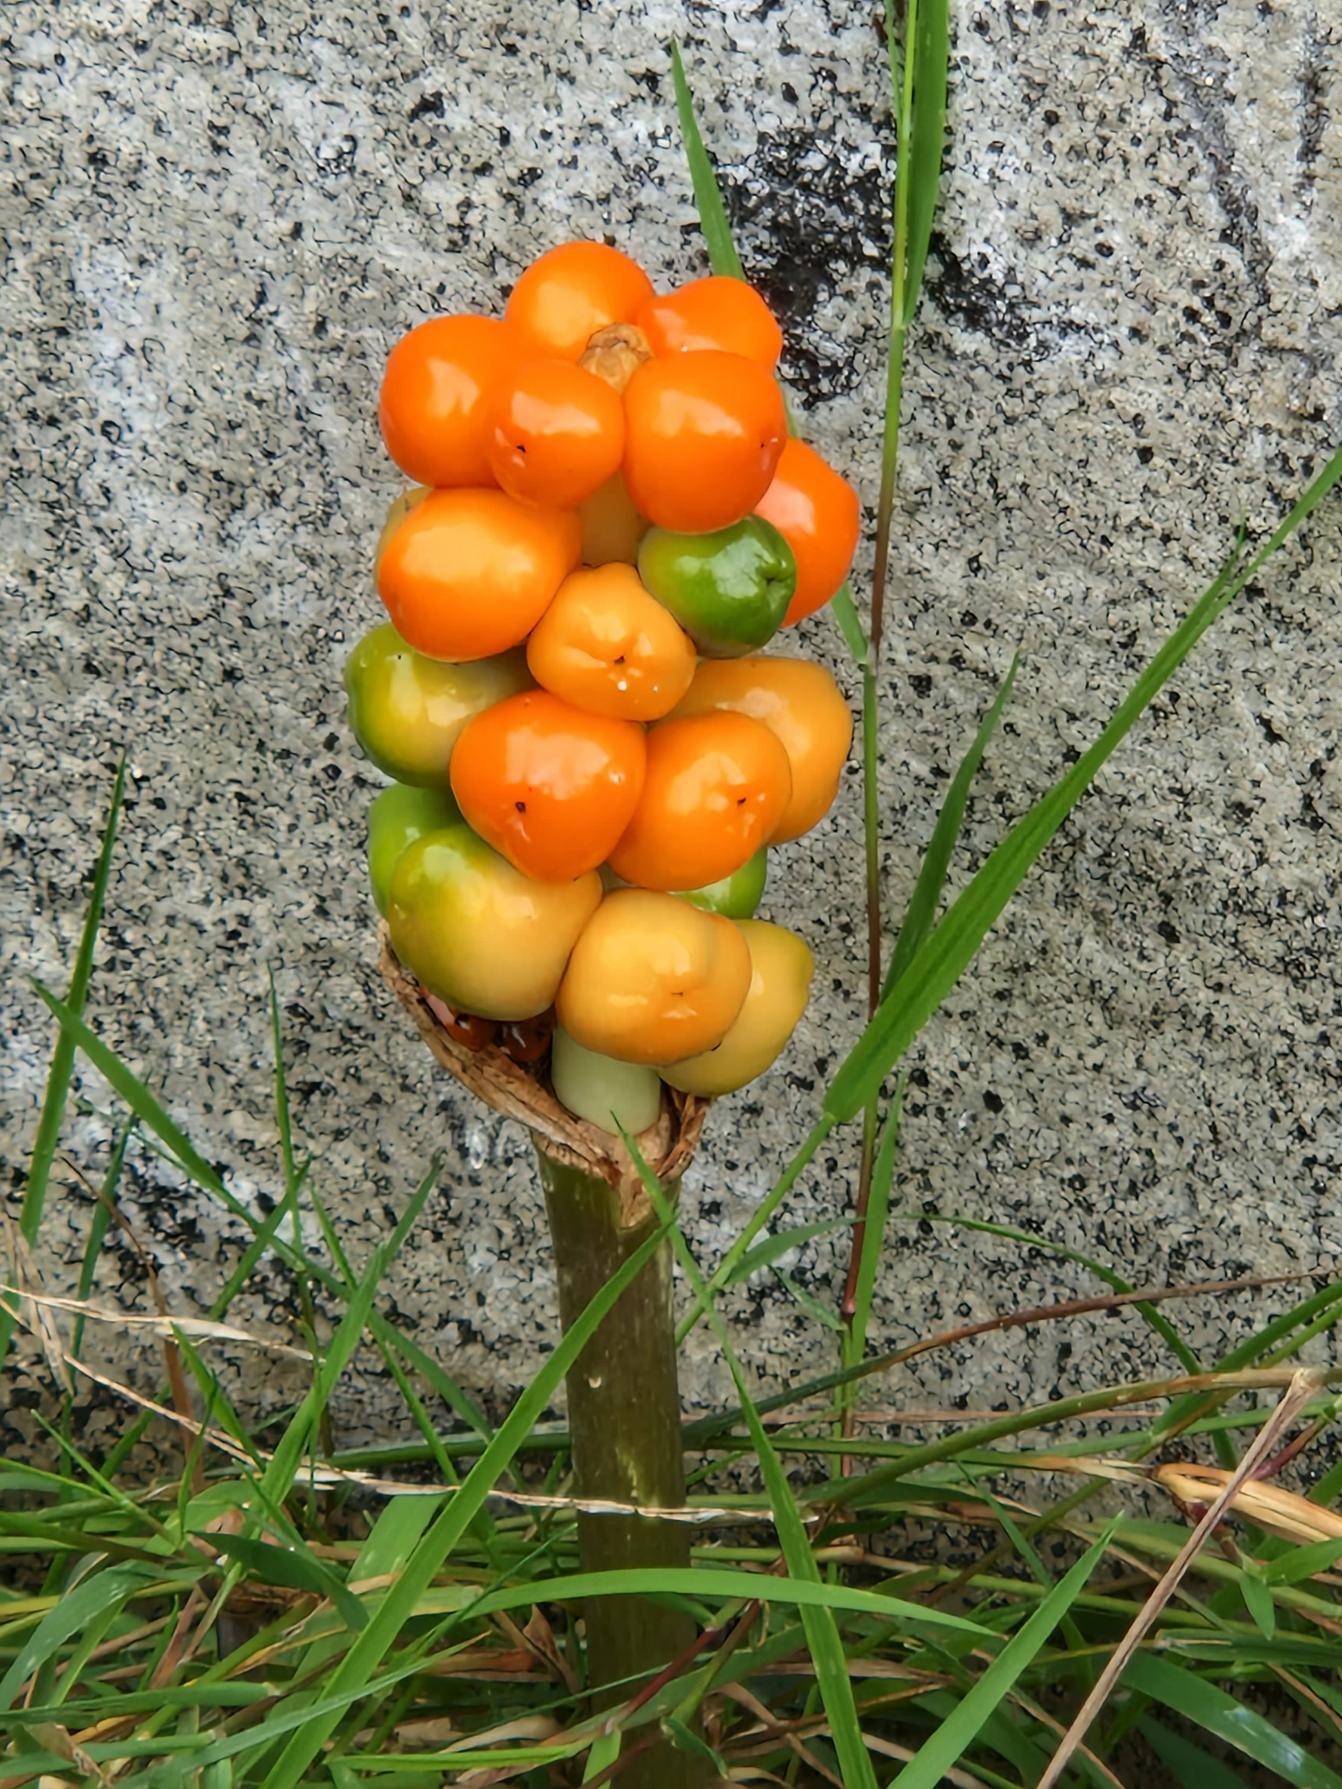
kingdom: Plantae
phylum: Tracheophyta
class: Liliopsida
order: Alismatales
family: Araceae
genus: Arum
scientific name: Arum
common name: Arumslægten
